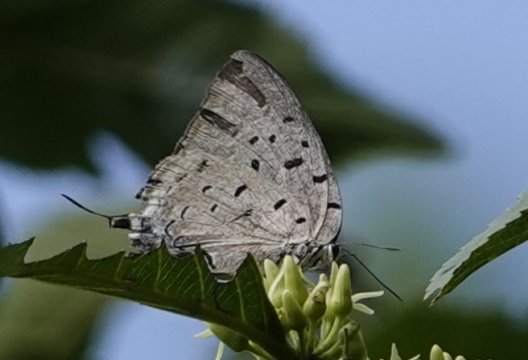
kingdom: Animalia
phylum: Arthropoda
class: Insecta
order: Lepidoptera
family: Lycaenidae
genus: Pseudolycaena
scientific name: Pseudolycaena damo
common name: Sky-blue Hairstreak
